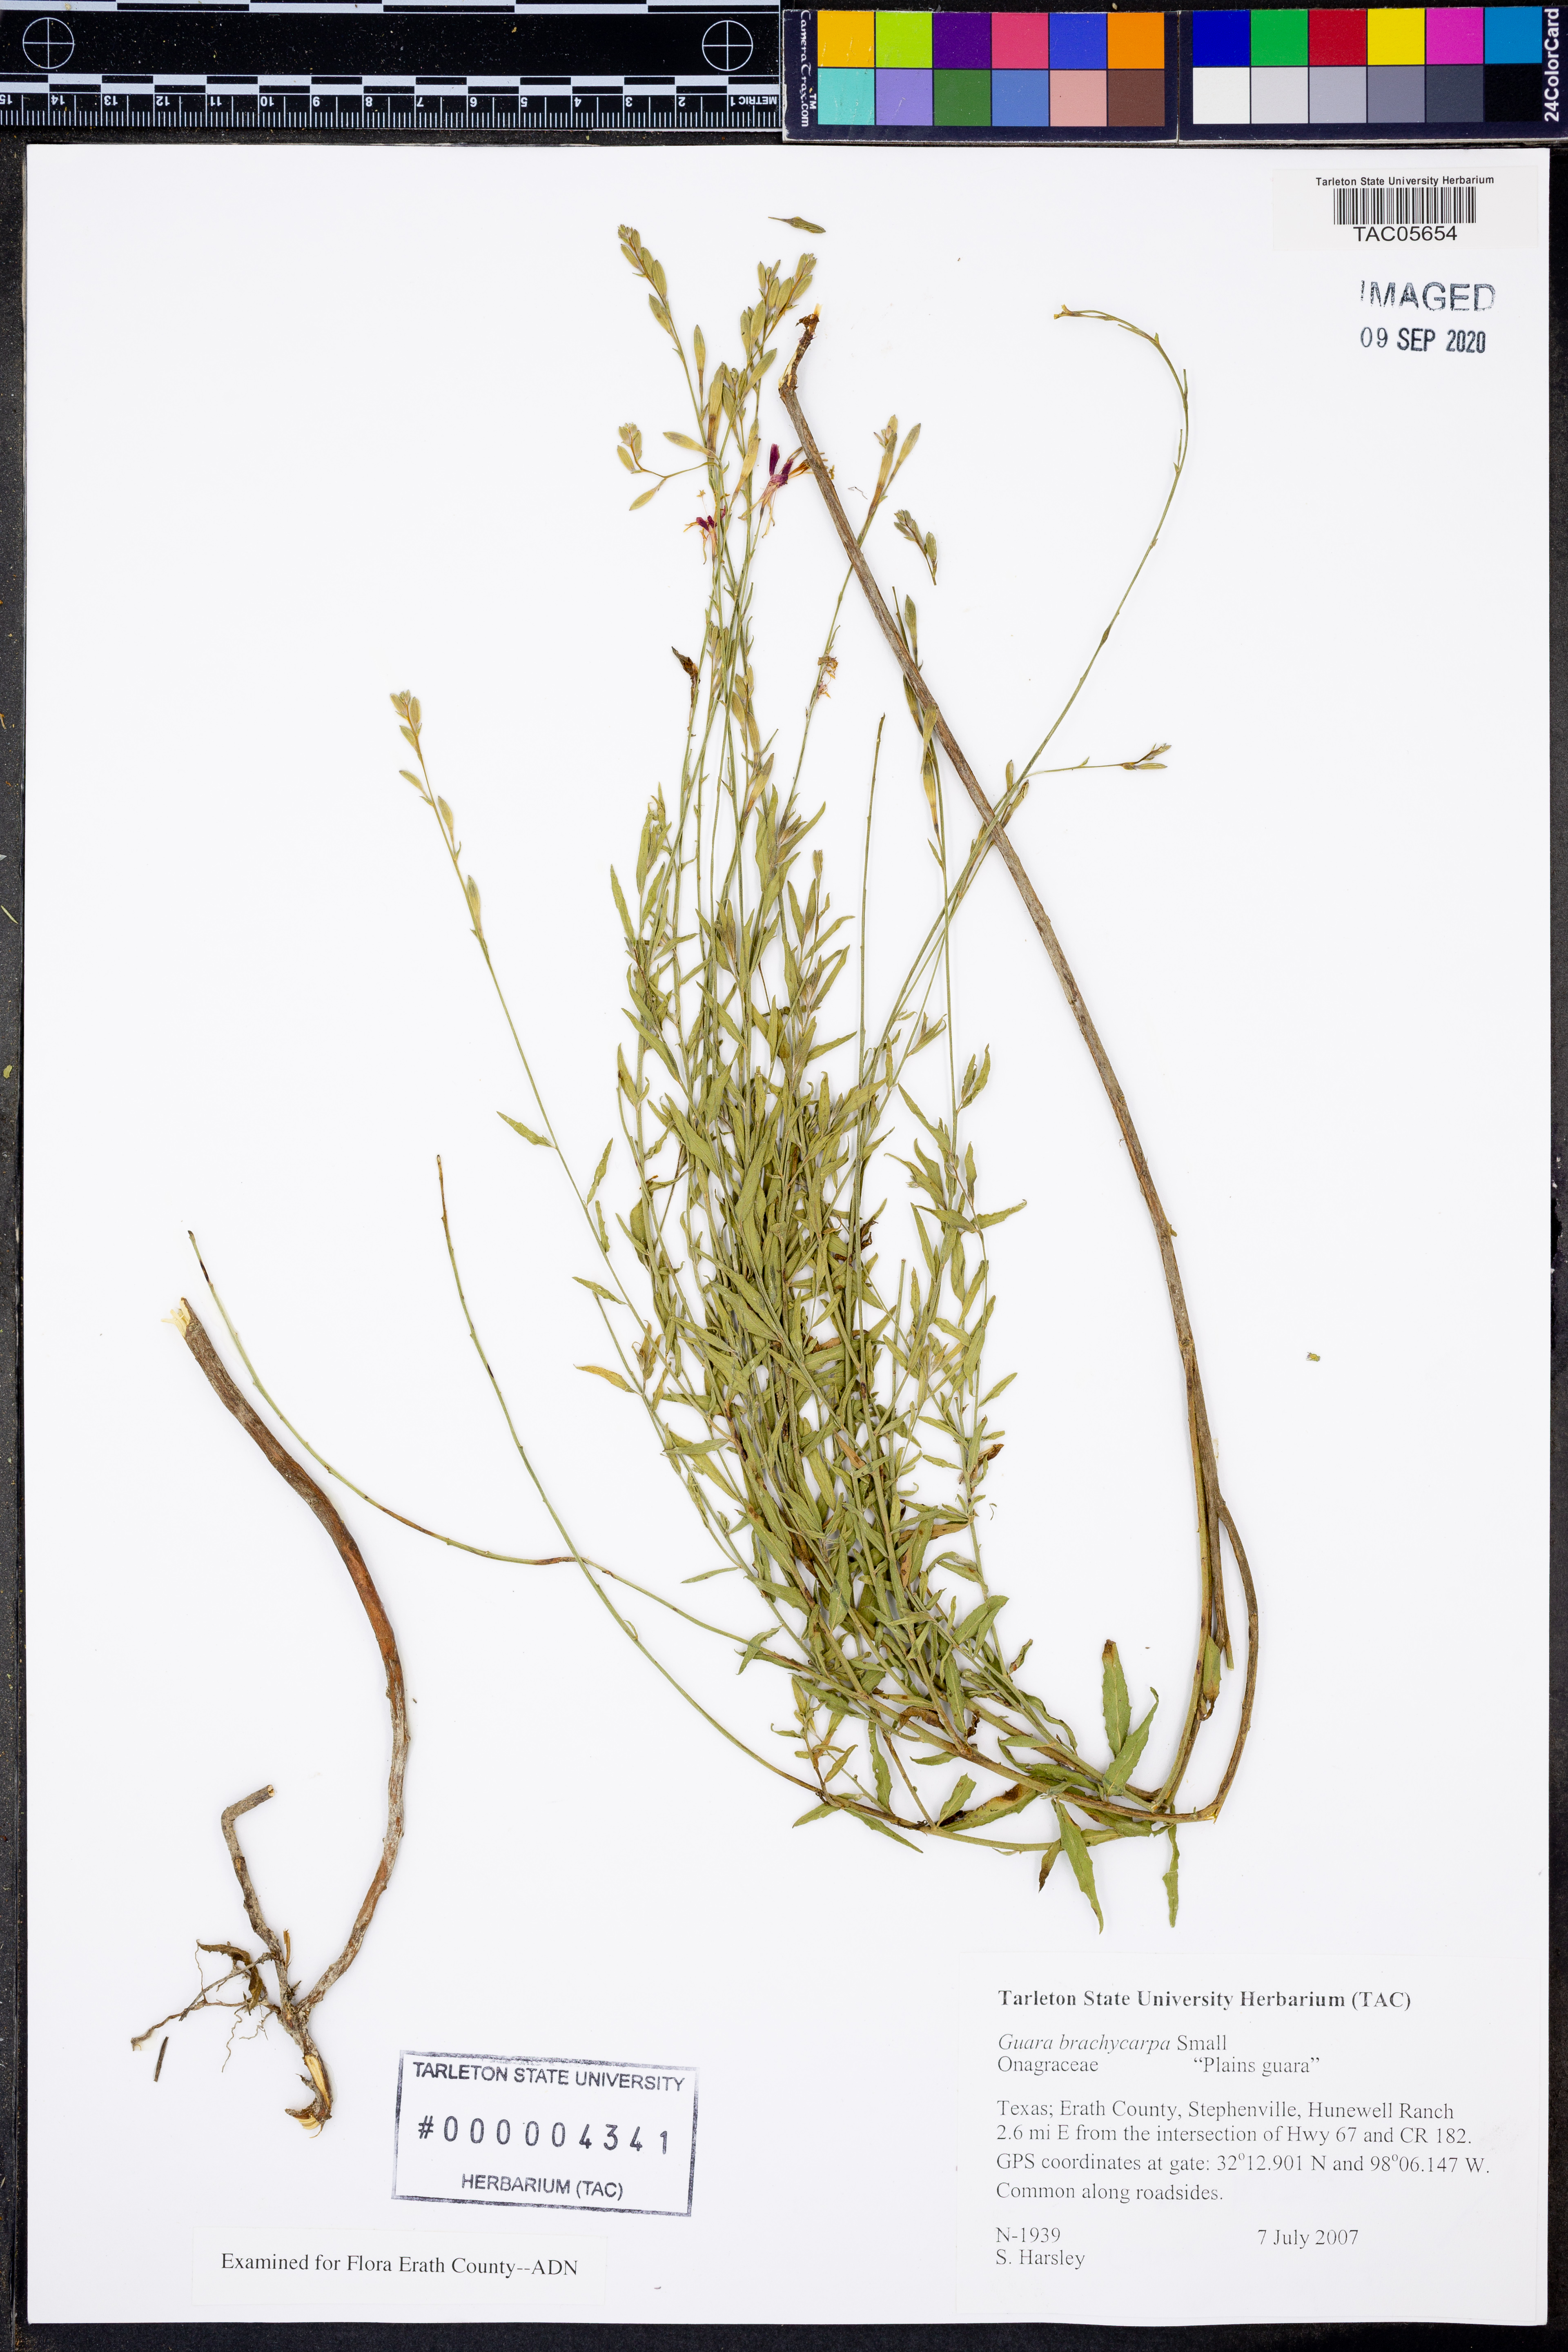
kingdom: Plantae
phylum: Tracheophyta
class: Magnoliopsida
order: Myrtales
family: Onagraceae
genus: Oenothera
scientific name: Oenothera patriciae
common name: Plains beeblossom
